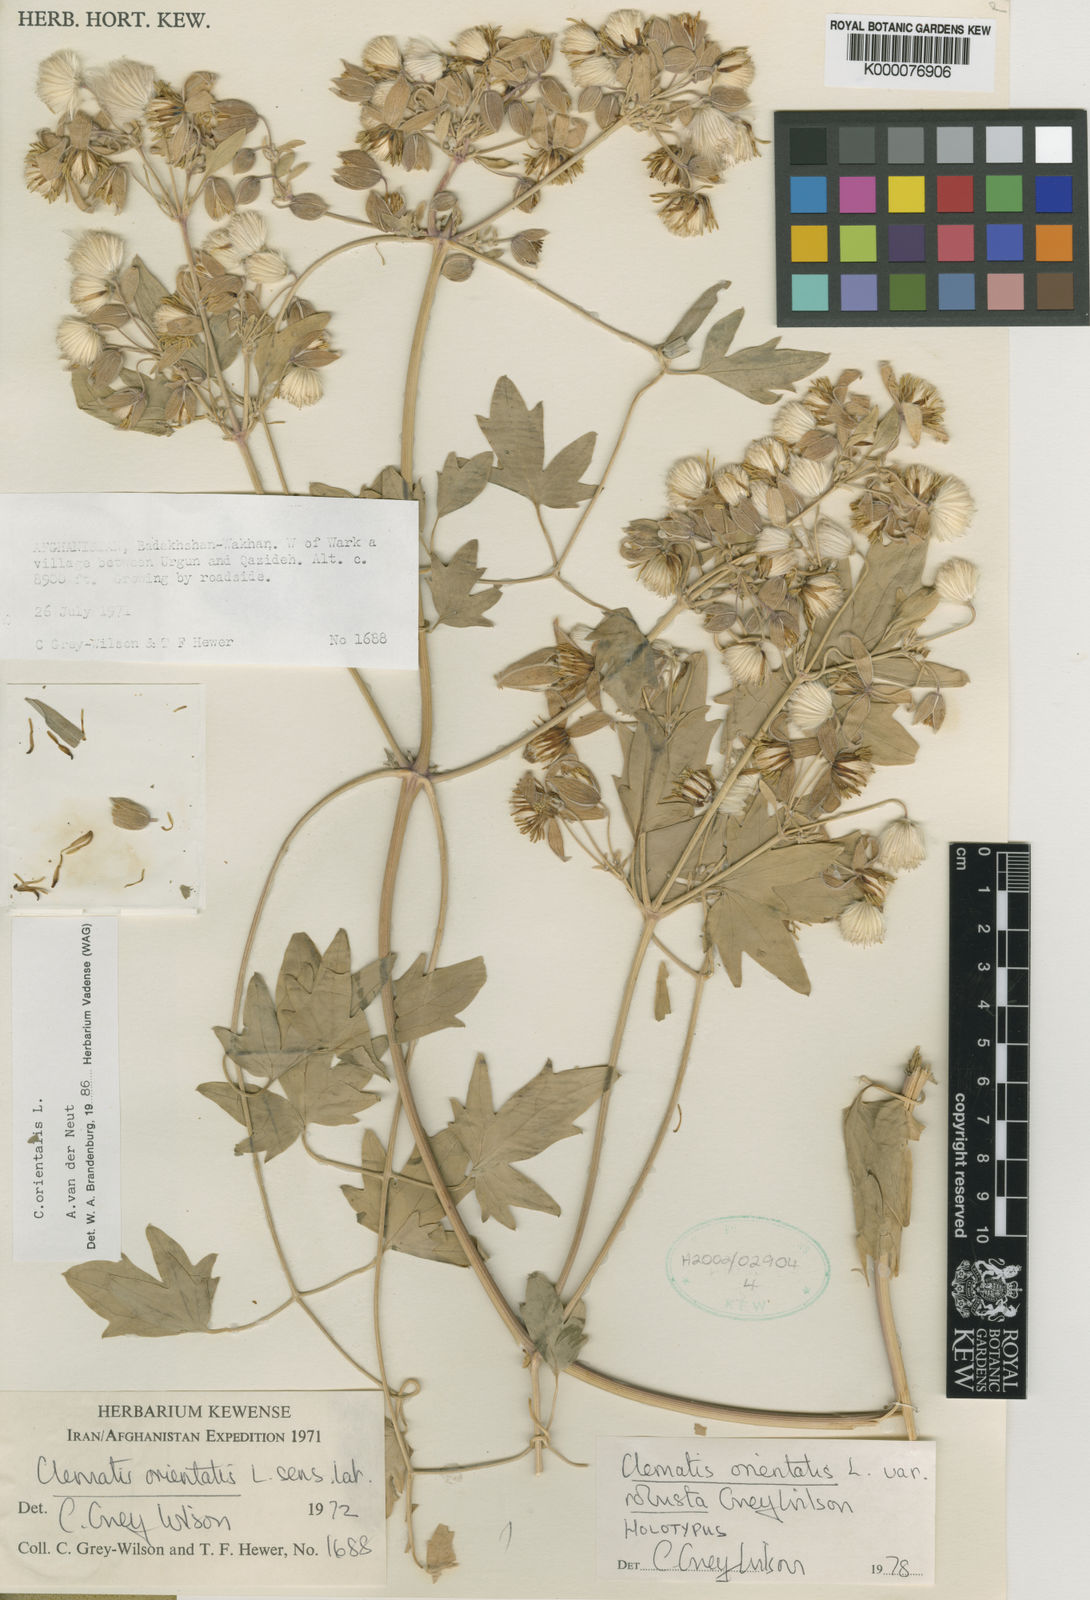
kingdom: Plantae
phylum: Tracheophyta
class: Magnoliopsida
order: Ranunculales
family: Ranunculaceae
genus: Clematis
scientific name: Clematis orientalis
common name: Oriental virgin's-bower
